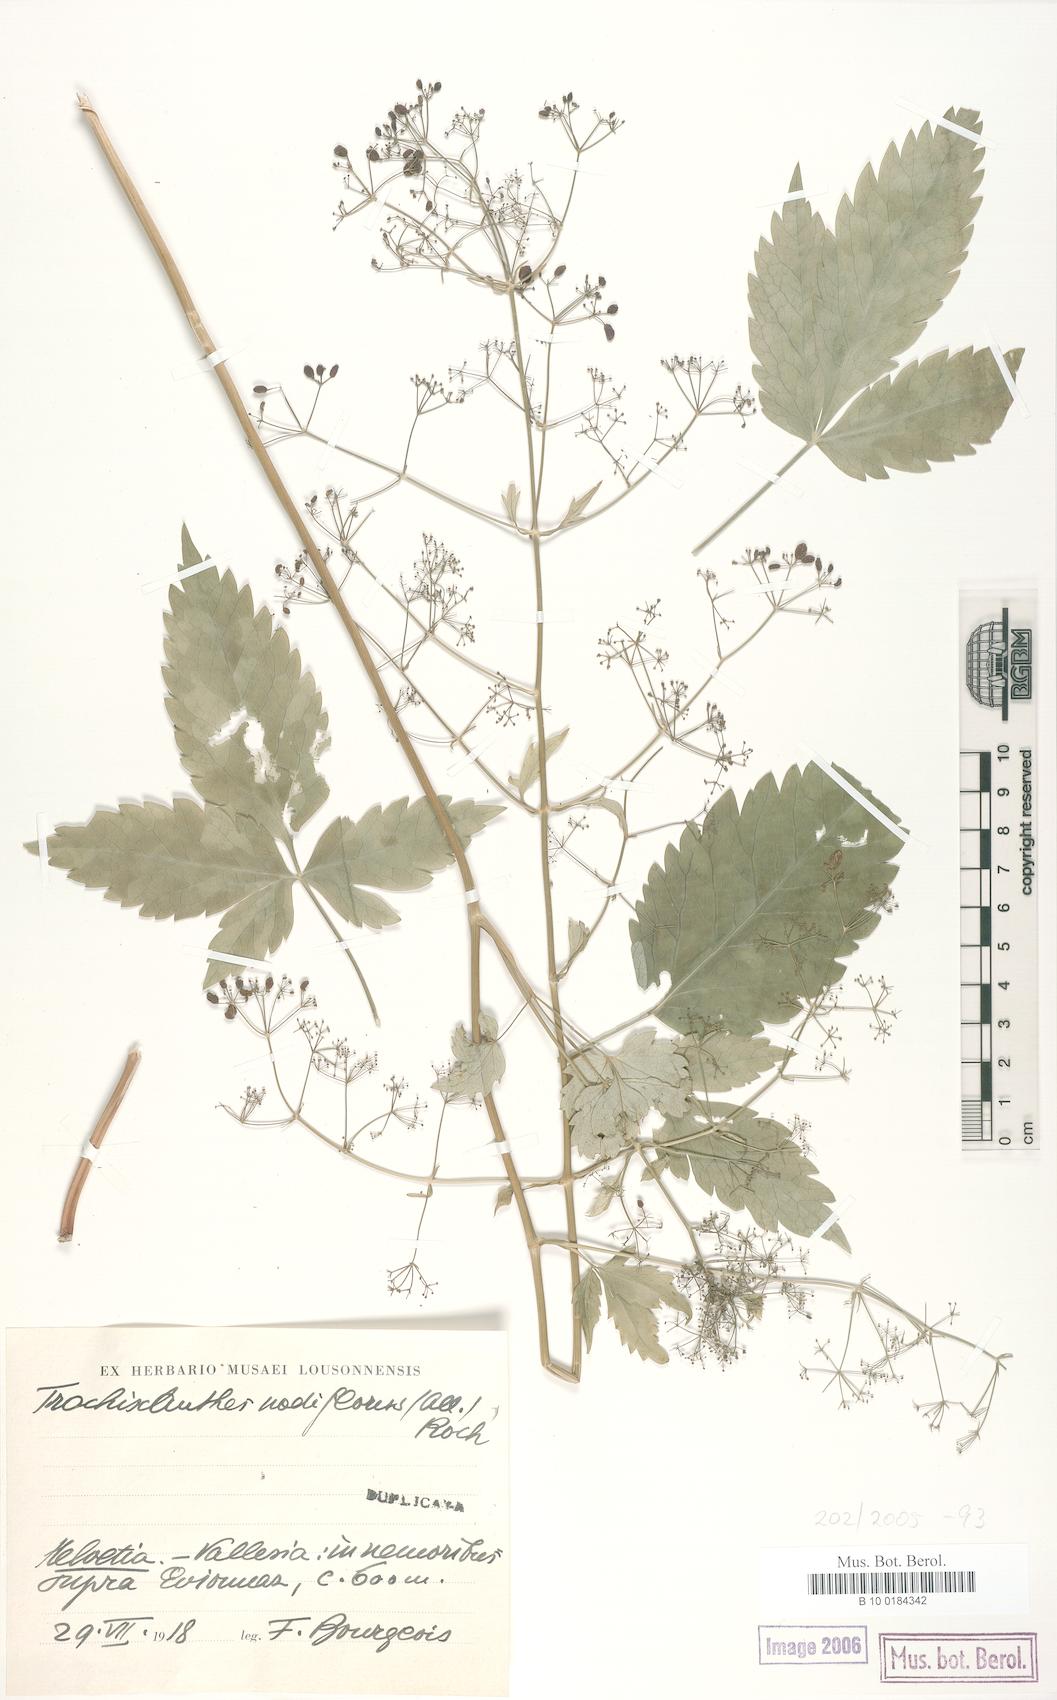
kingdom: Plantae
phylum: Tracheophyta
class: Magnoliopsida
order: Apiales
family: Apiaceae
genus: Trochiscanthes
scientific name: Trochiscanthes nodiflora
